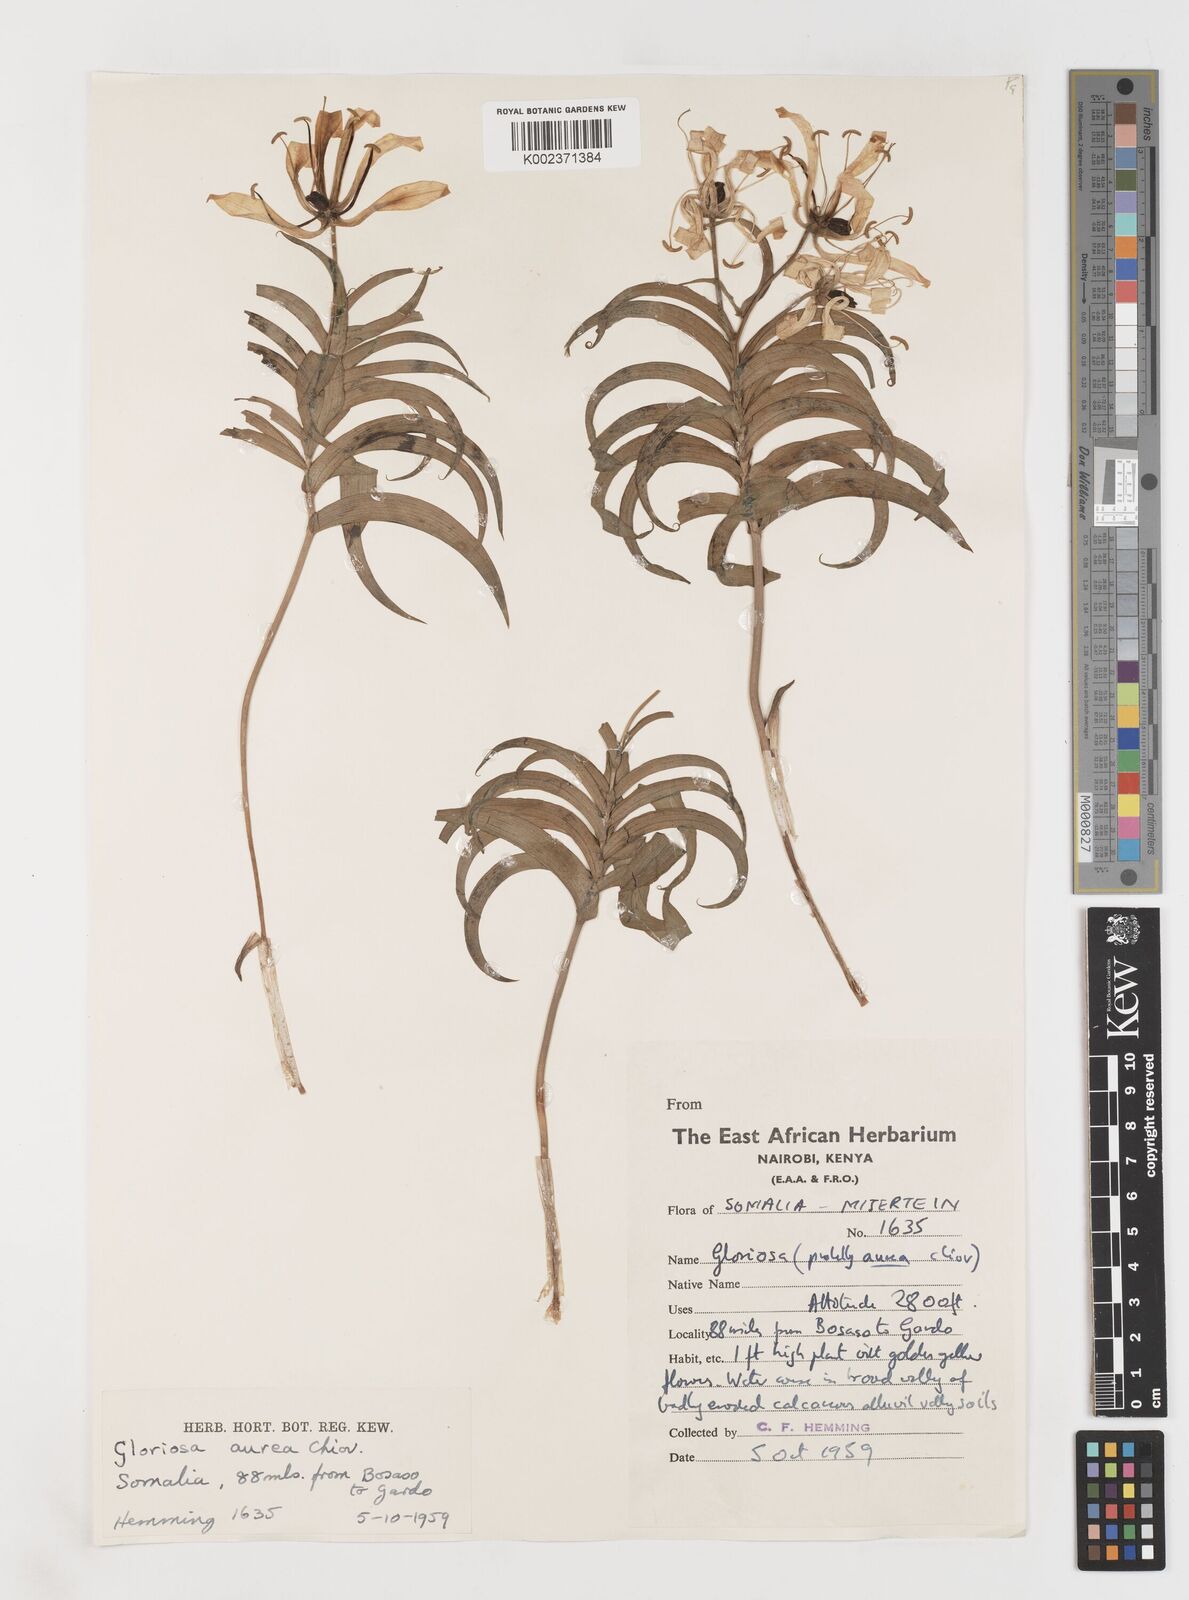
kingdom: Plantae
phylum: Tracheophyta
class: Liliopsida
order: Liliales
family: Colchicaceae
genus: Gloriosa
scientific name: Gloriosa baudii
